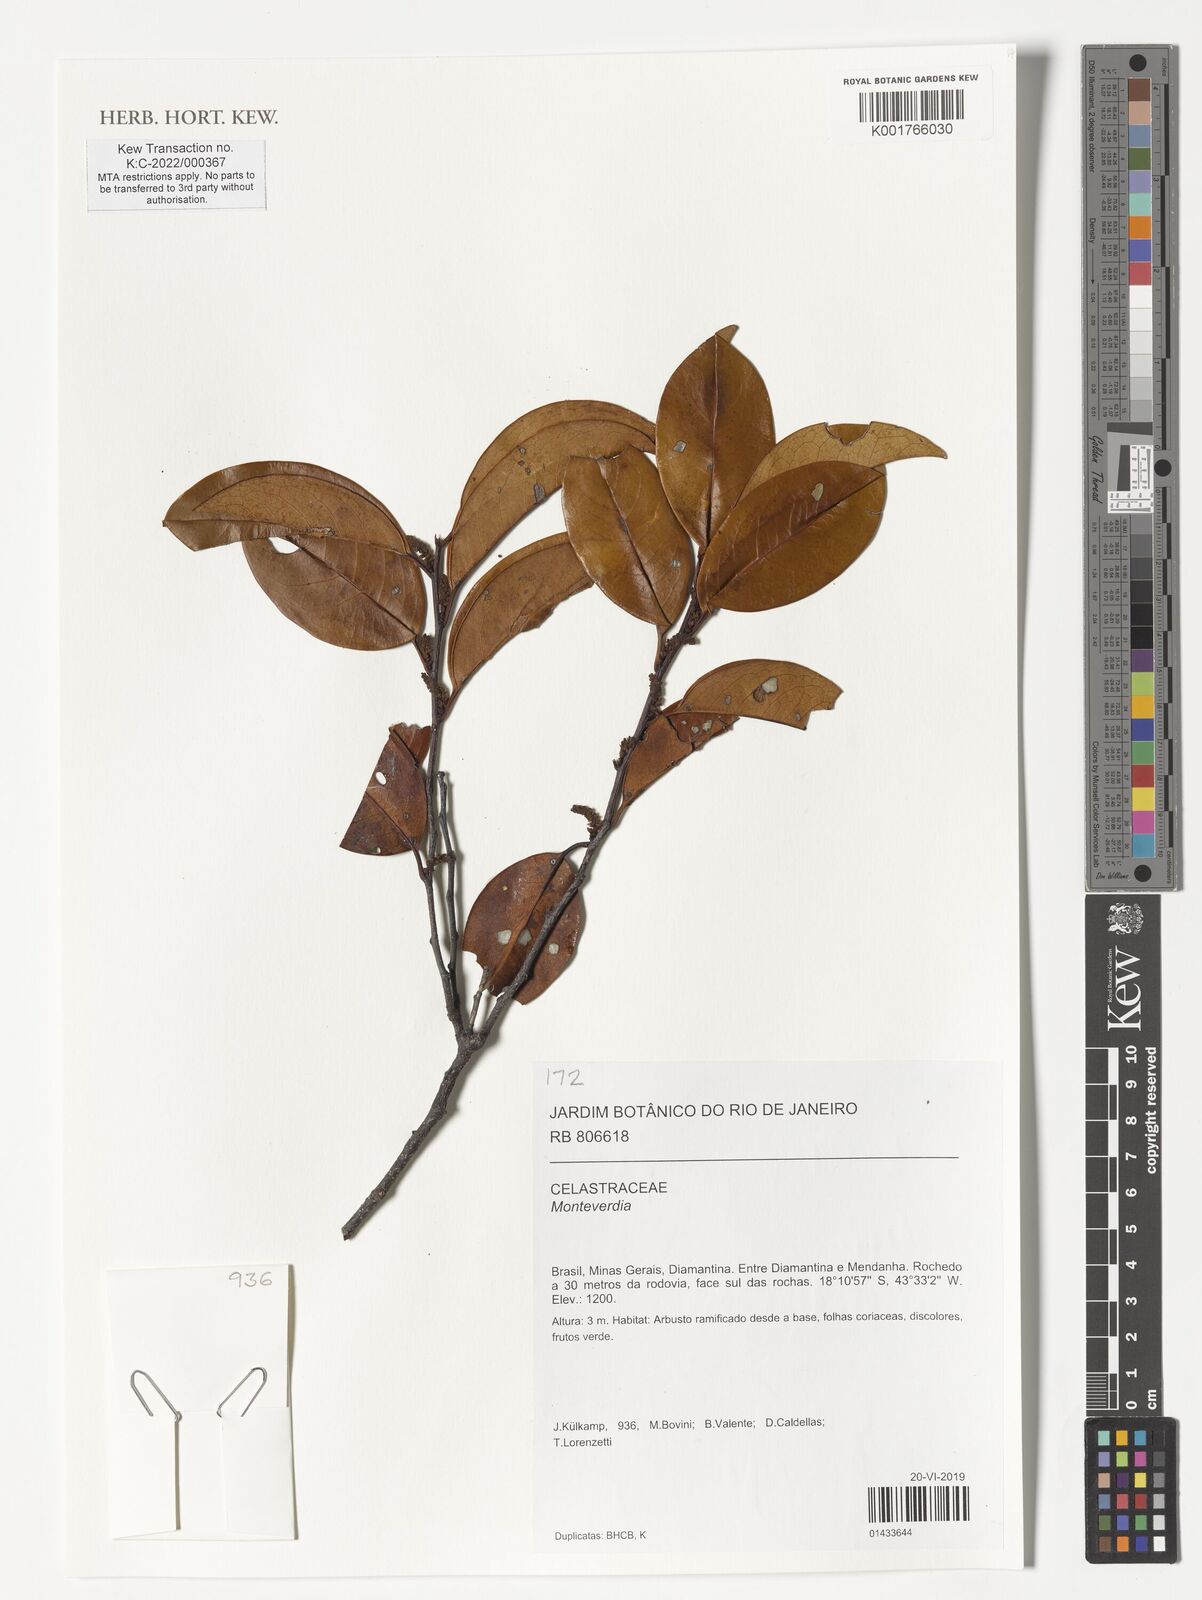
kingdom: Plantae
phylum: Tracheophyta
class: Magnoliopsida
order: Celastrales
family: Celastraceae
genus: Monteverdia
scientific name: Monteverdia
